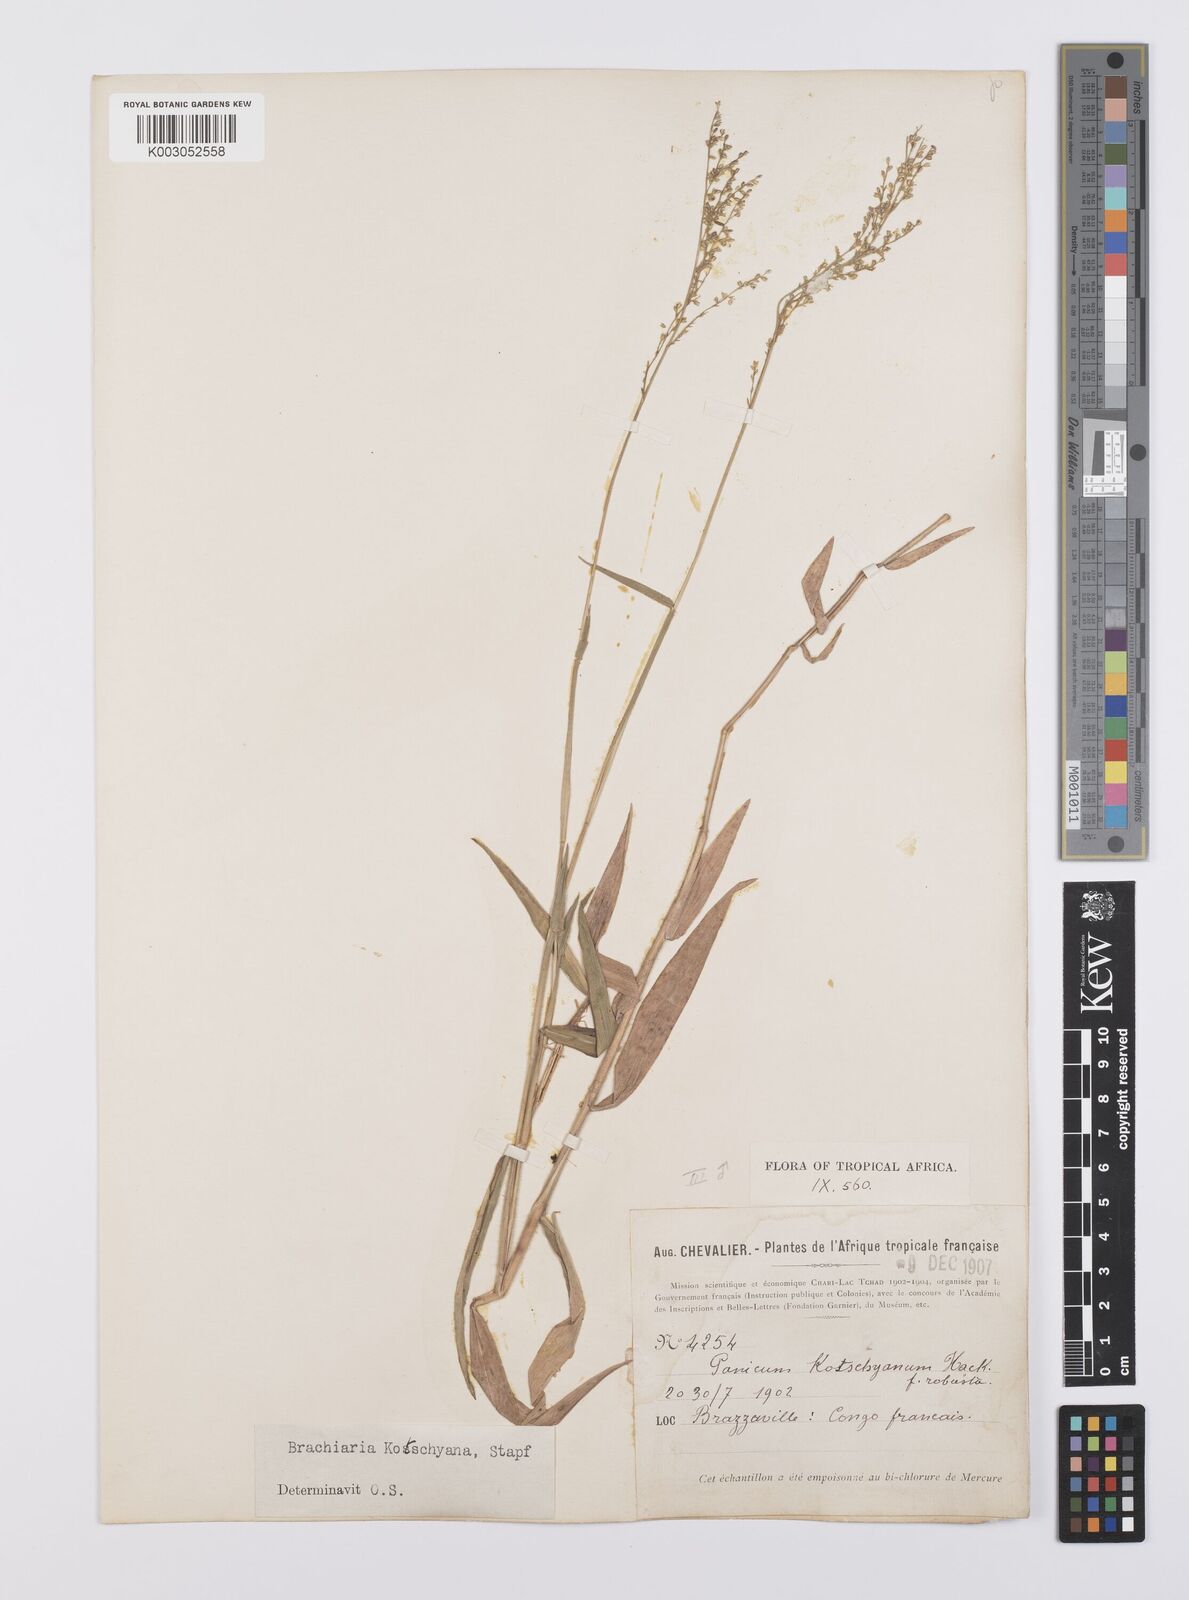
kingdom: Plantae
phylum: Tracheophyta
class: Liliopsida
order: Poales
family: Poaceae
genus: Urochloa
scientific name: Urochloa comata
